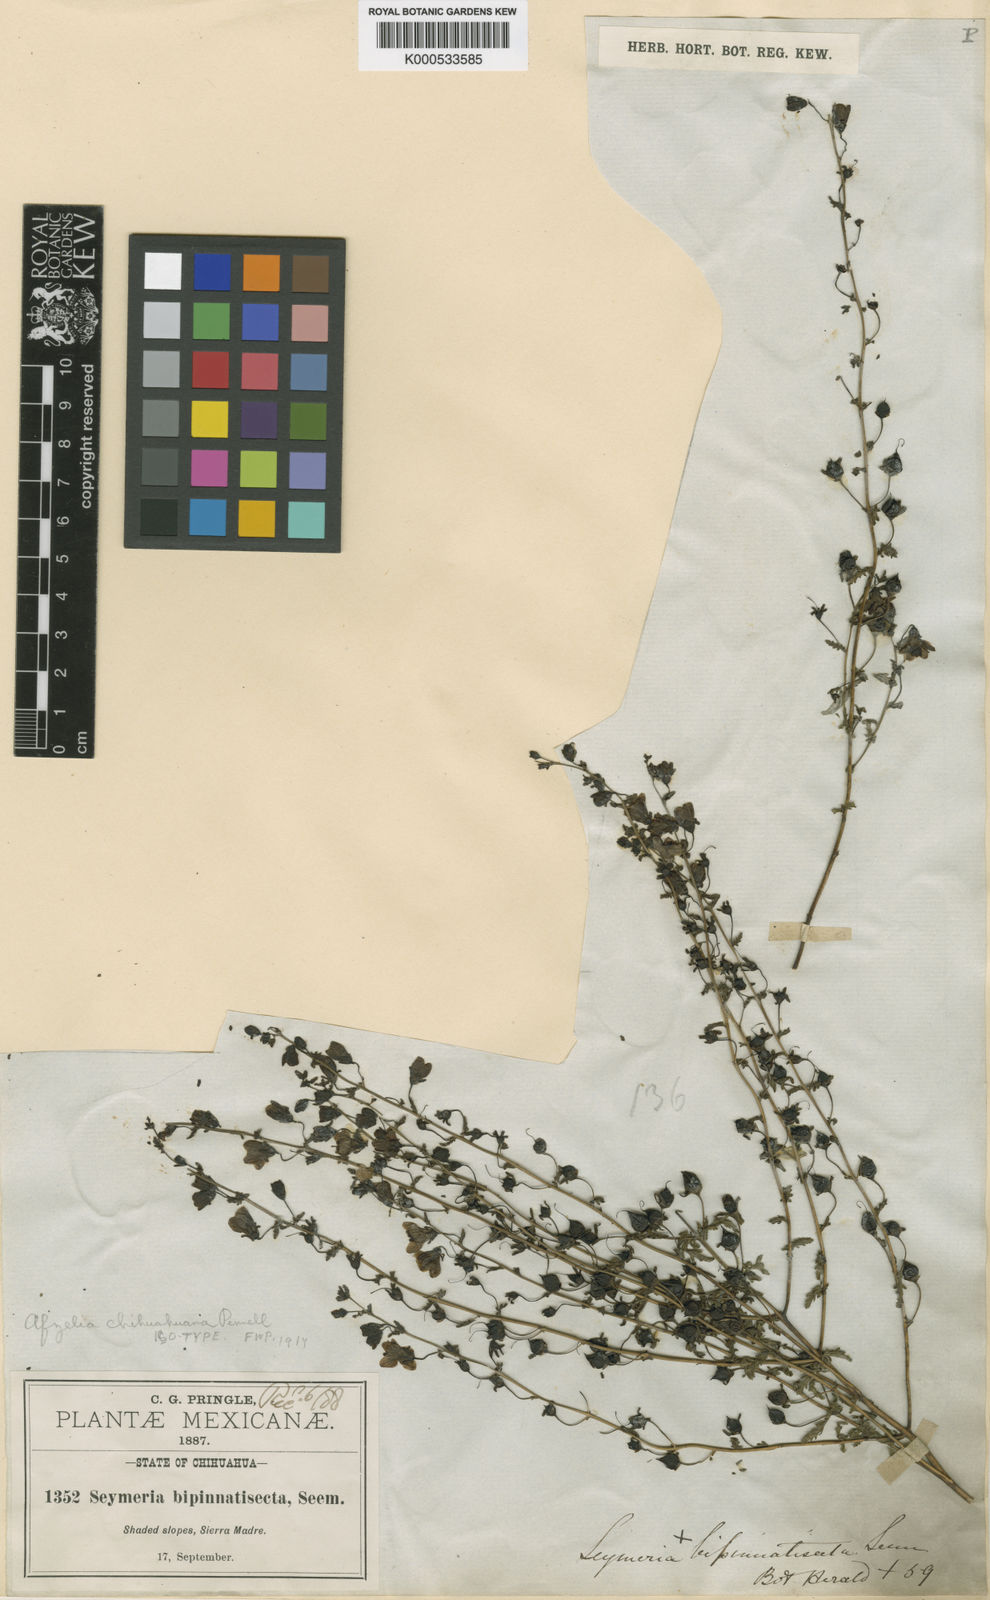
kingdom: Plantae
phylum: Tracheophyta
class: Magnoliopsida
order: Lamiales
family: Orobanchaceae
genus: Seymeria
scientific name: Seymeria bipinnatisecta
